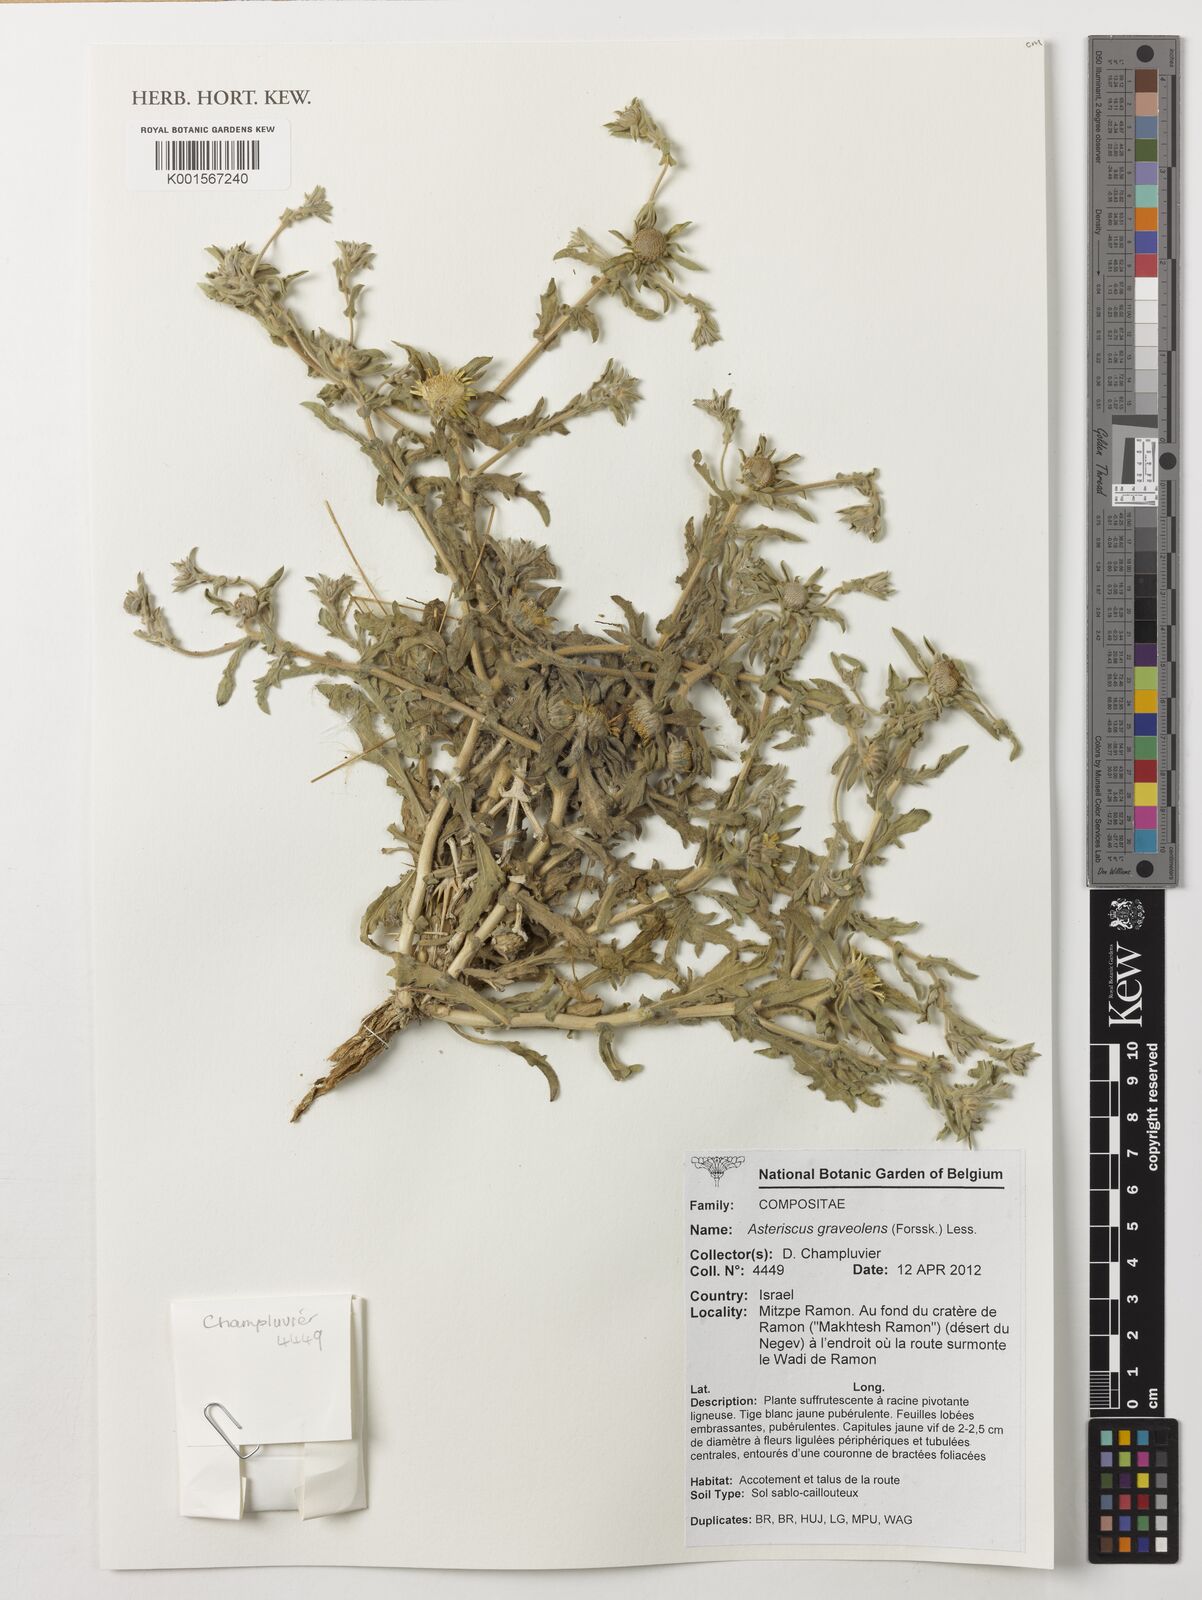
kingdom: Plantae
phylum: Tracheophyta
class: Magnoliopsida
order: Asterales
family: Asteraceae
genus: Asteriscus
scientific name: Asteriscus graveolens
